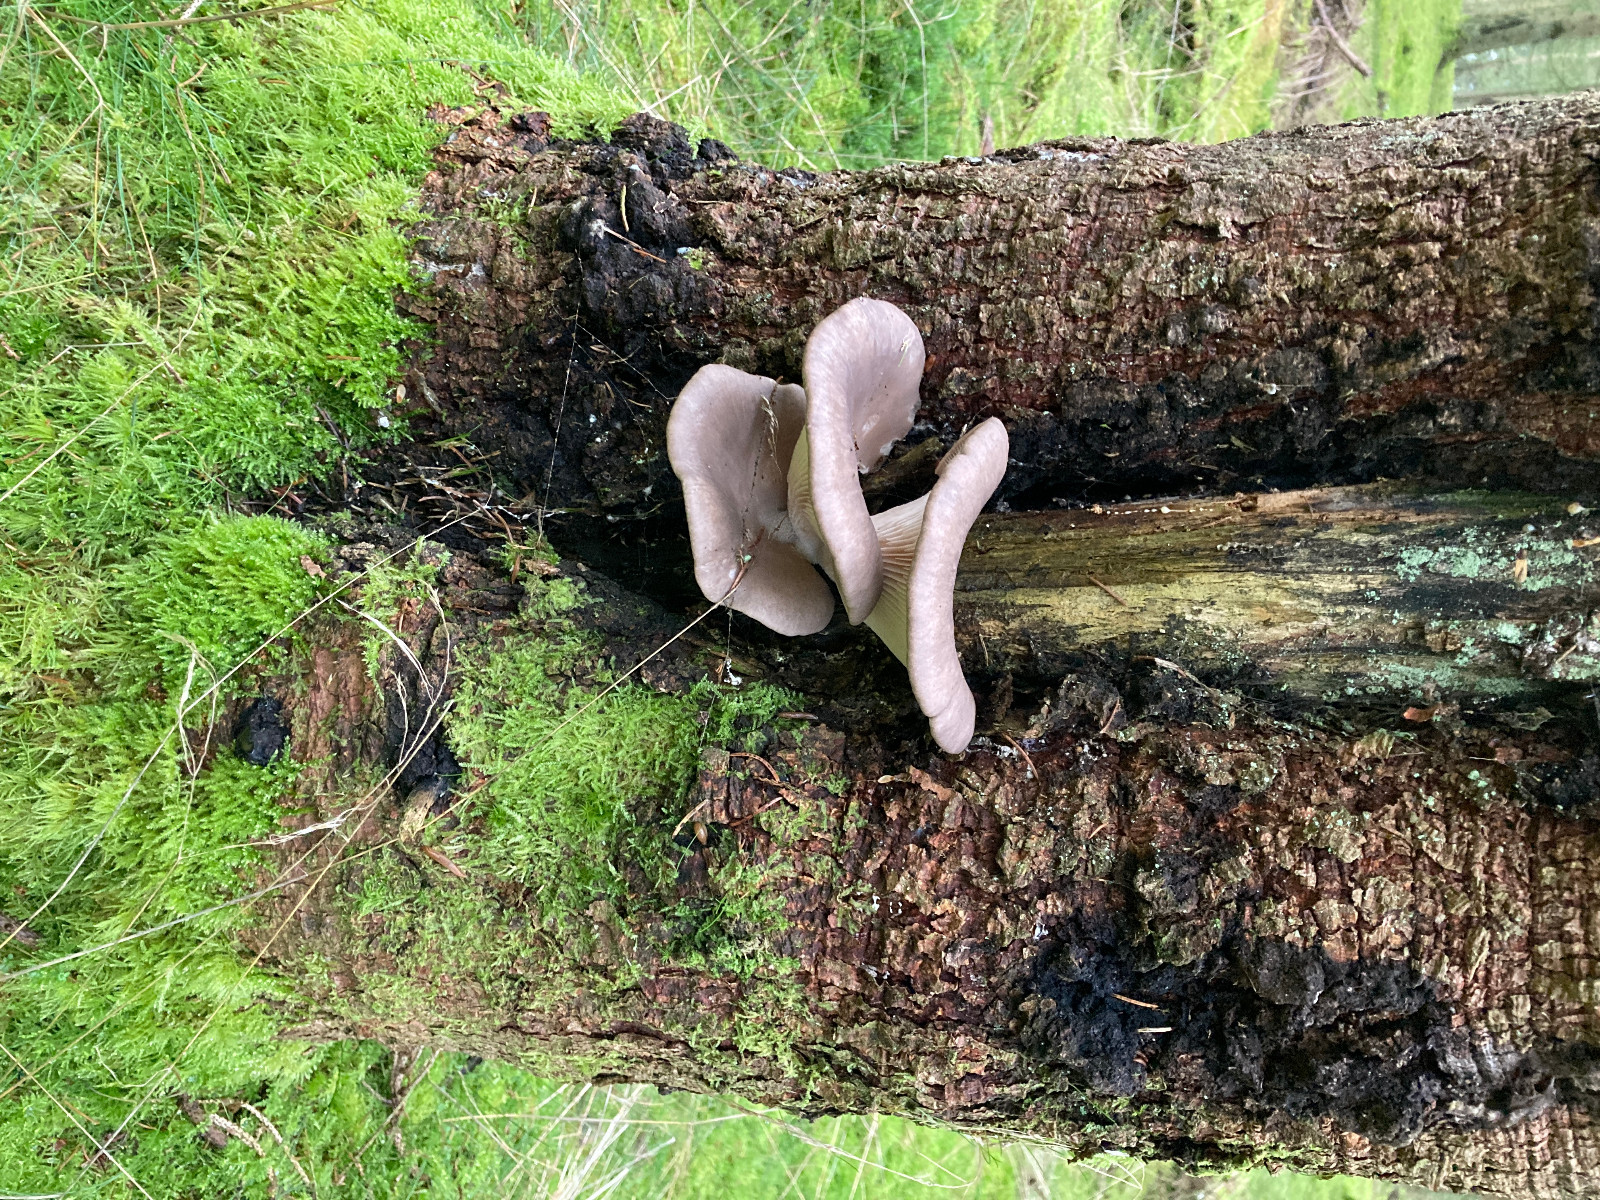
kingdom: Fungi
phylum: Basidiomycota
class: Agaricomycetes
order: Agaricales
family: Pleurotaceae
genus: Pleurotus
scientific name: Pleurotus ostreatus
